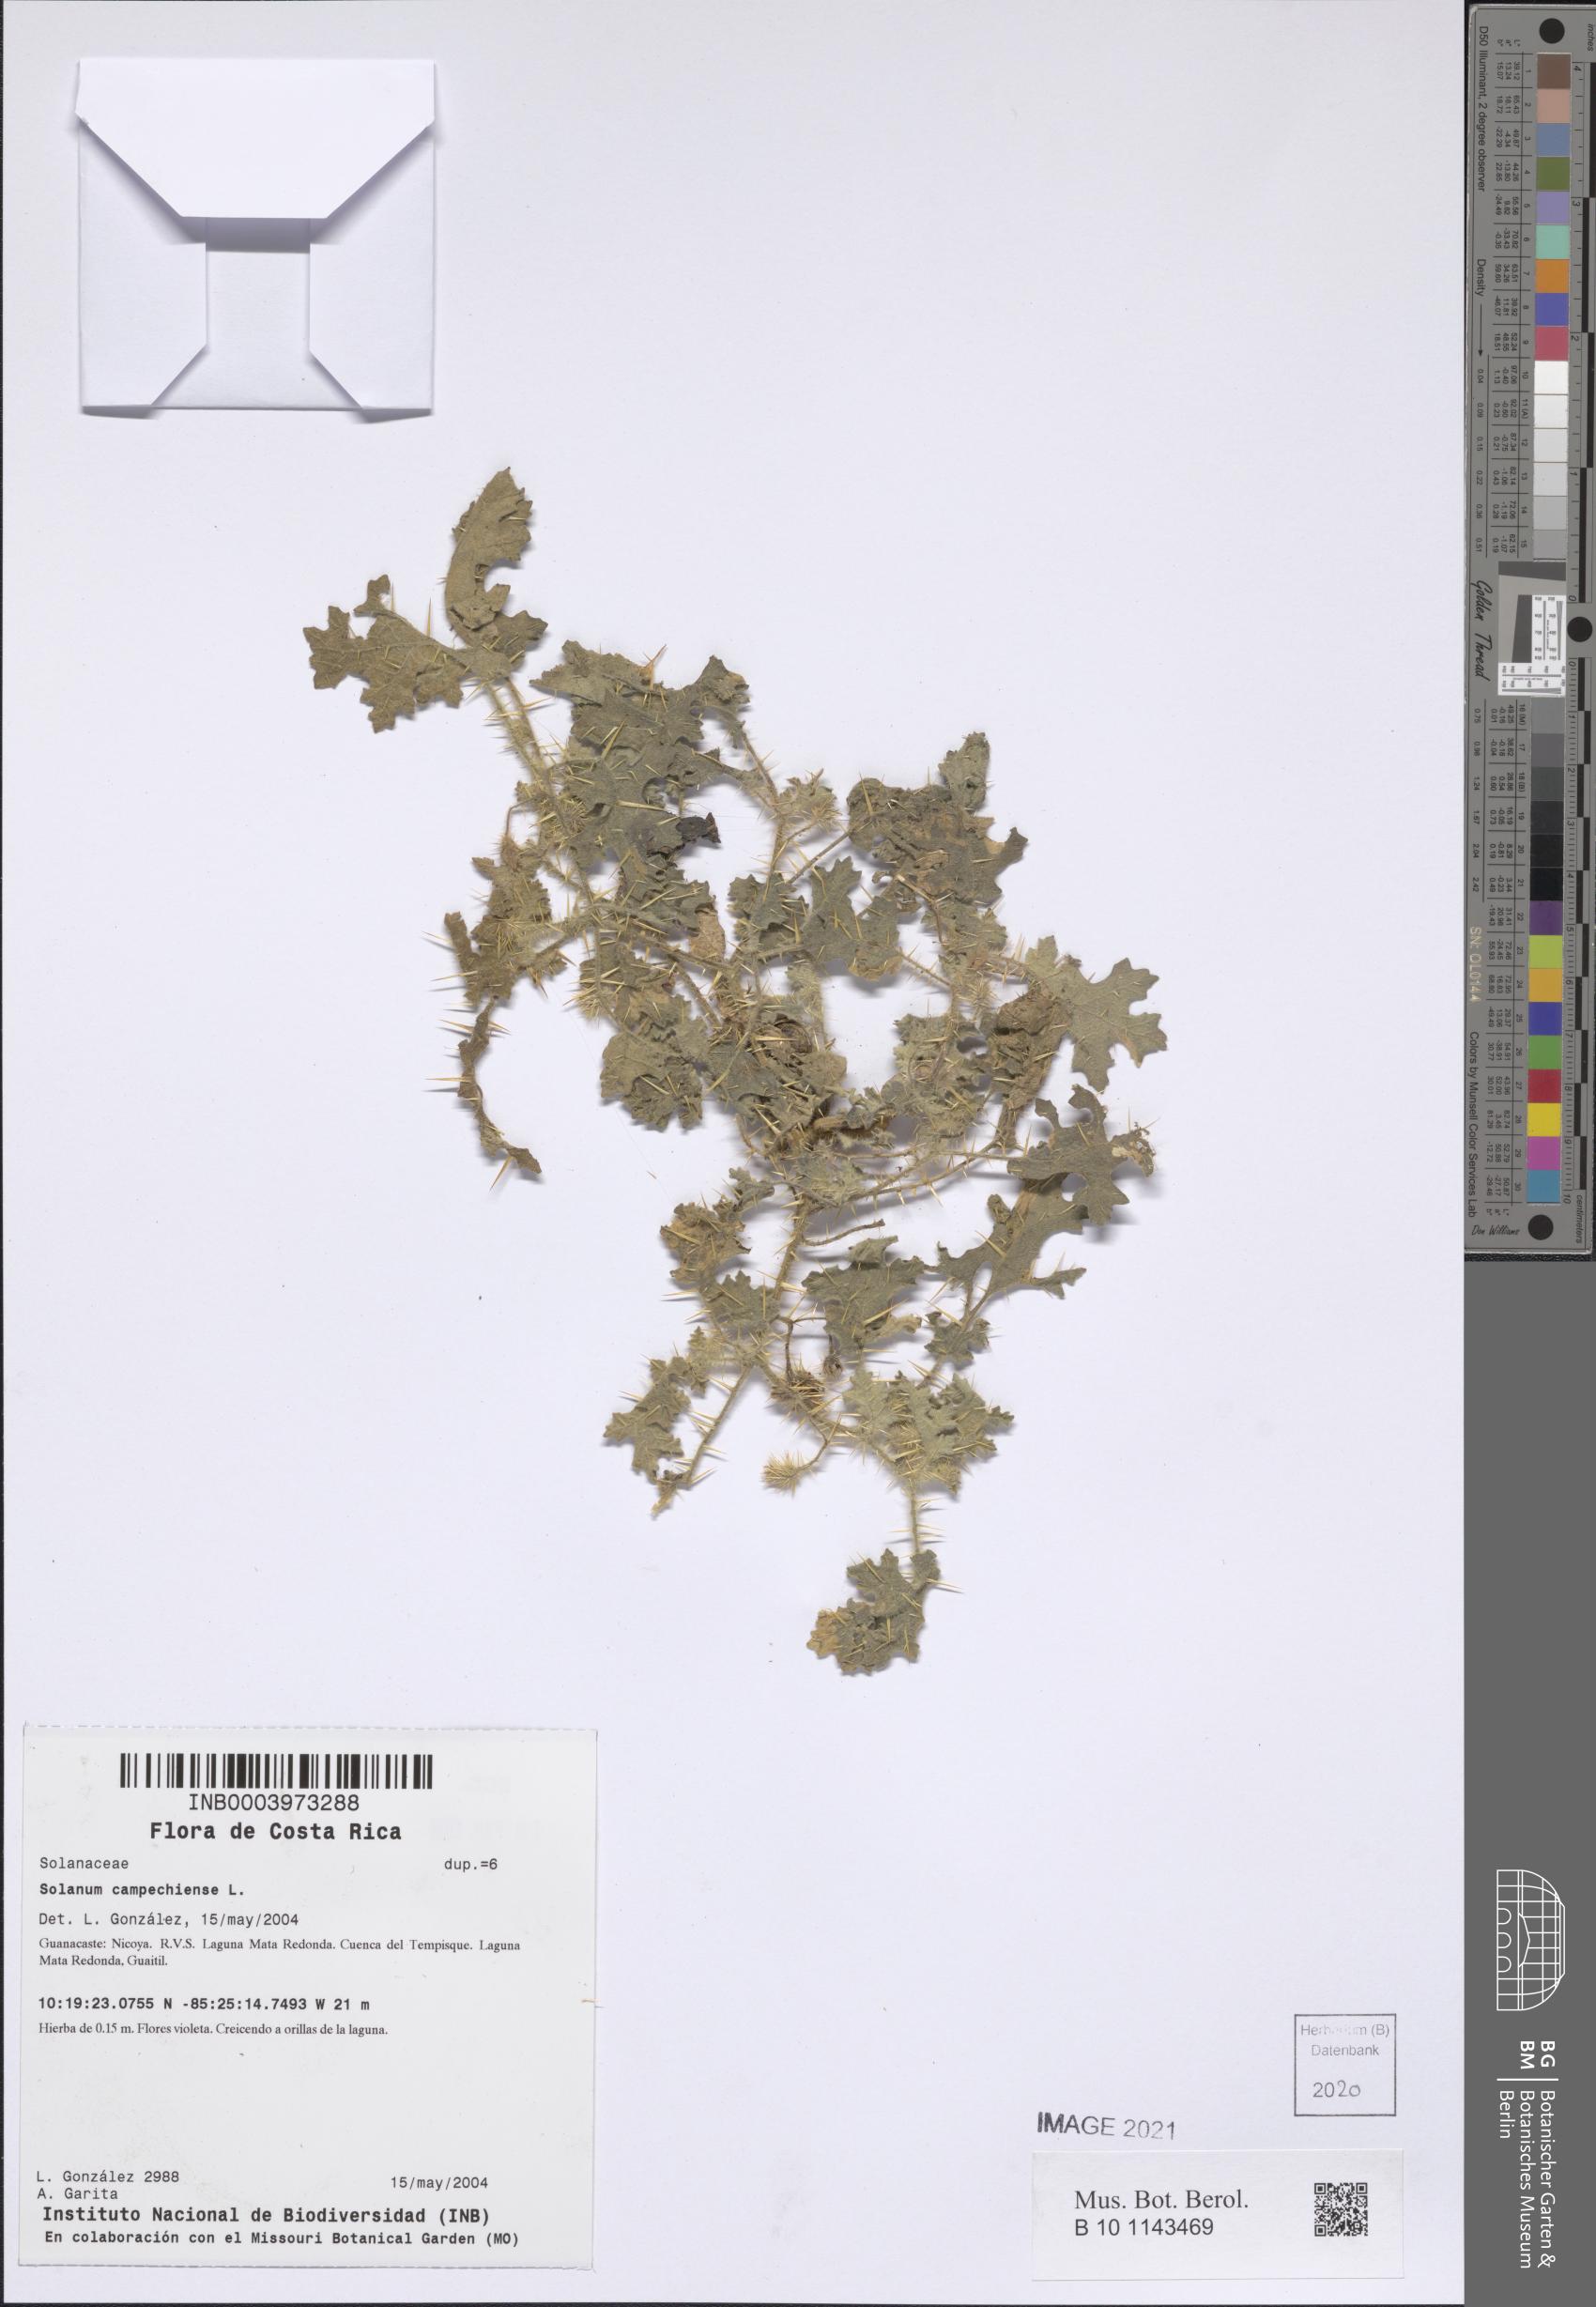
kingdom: Plantae
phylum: Tracheophyta
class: Magnoliopsida
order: Solanales
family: Solanaceae
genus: Solanum
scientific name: Solanum campechiense
